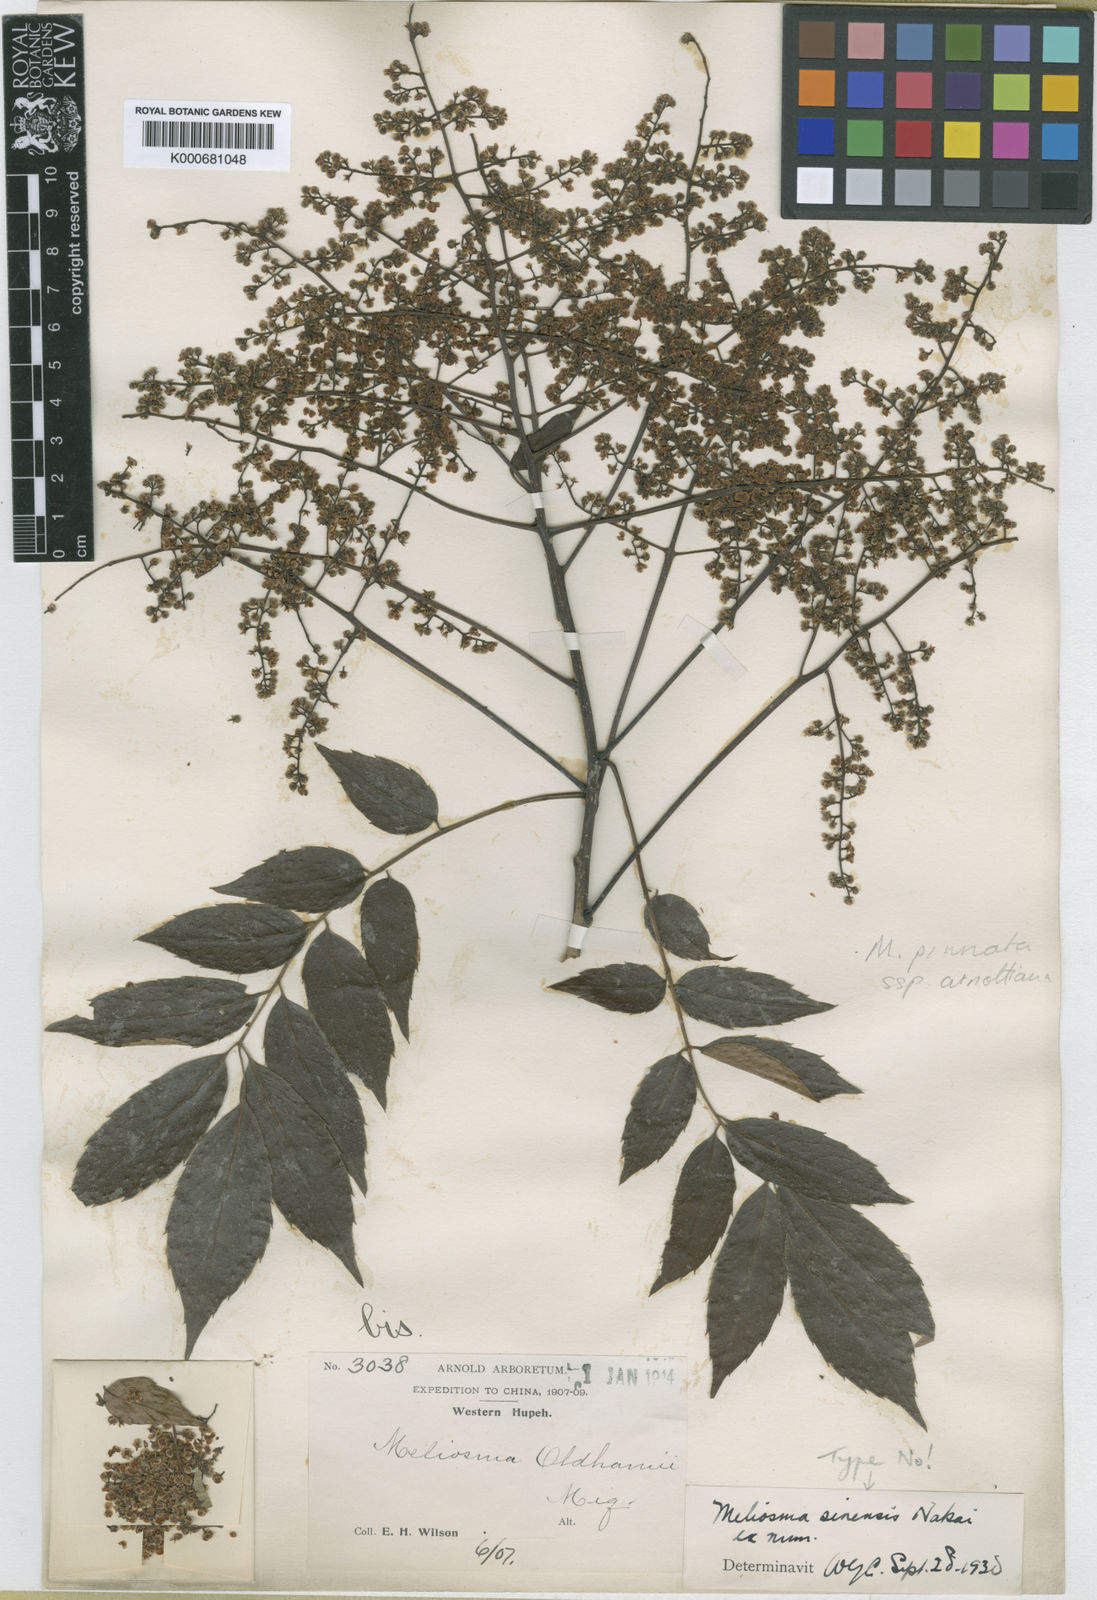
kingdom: Plantae
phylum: Tracheophyta
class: Magnoliopsida
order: Proteales
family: Sabiaceae
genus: Meliosma
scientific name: Meliosma oldhamii
